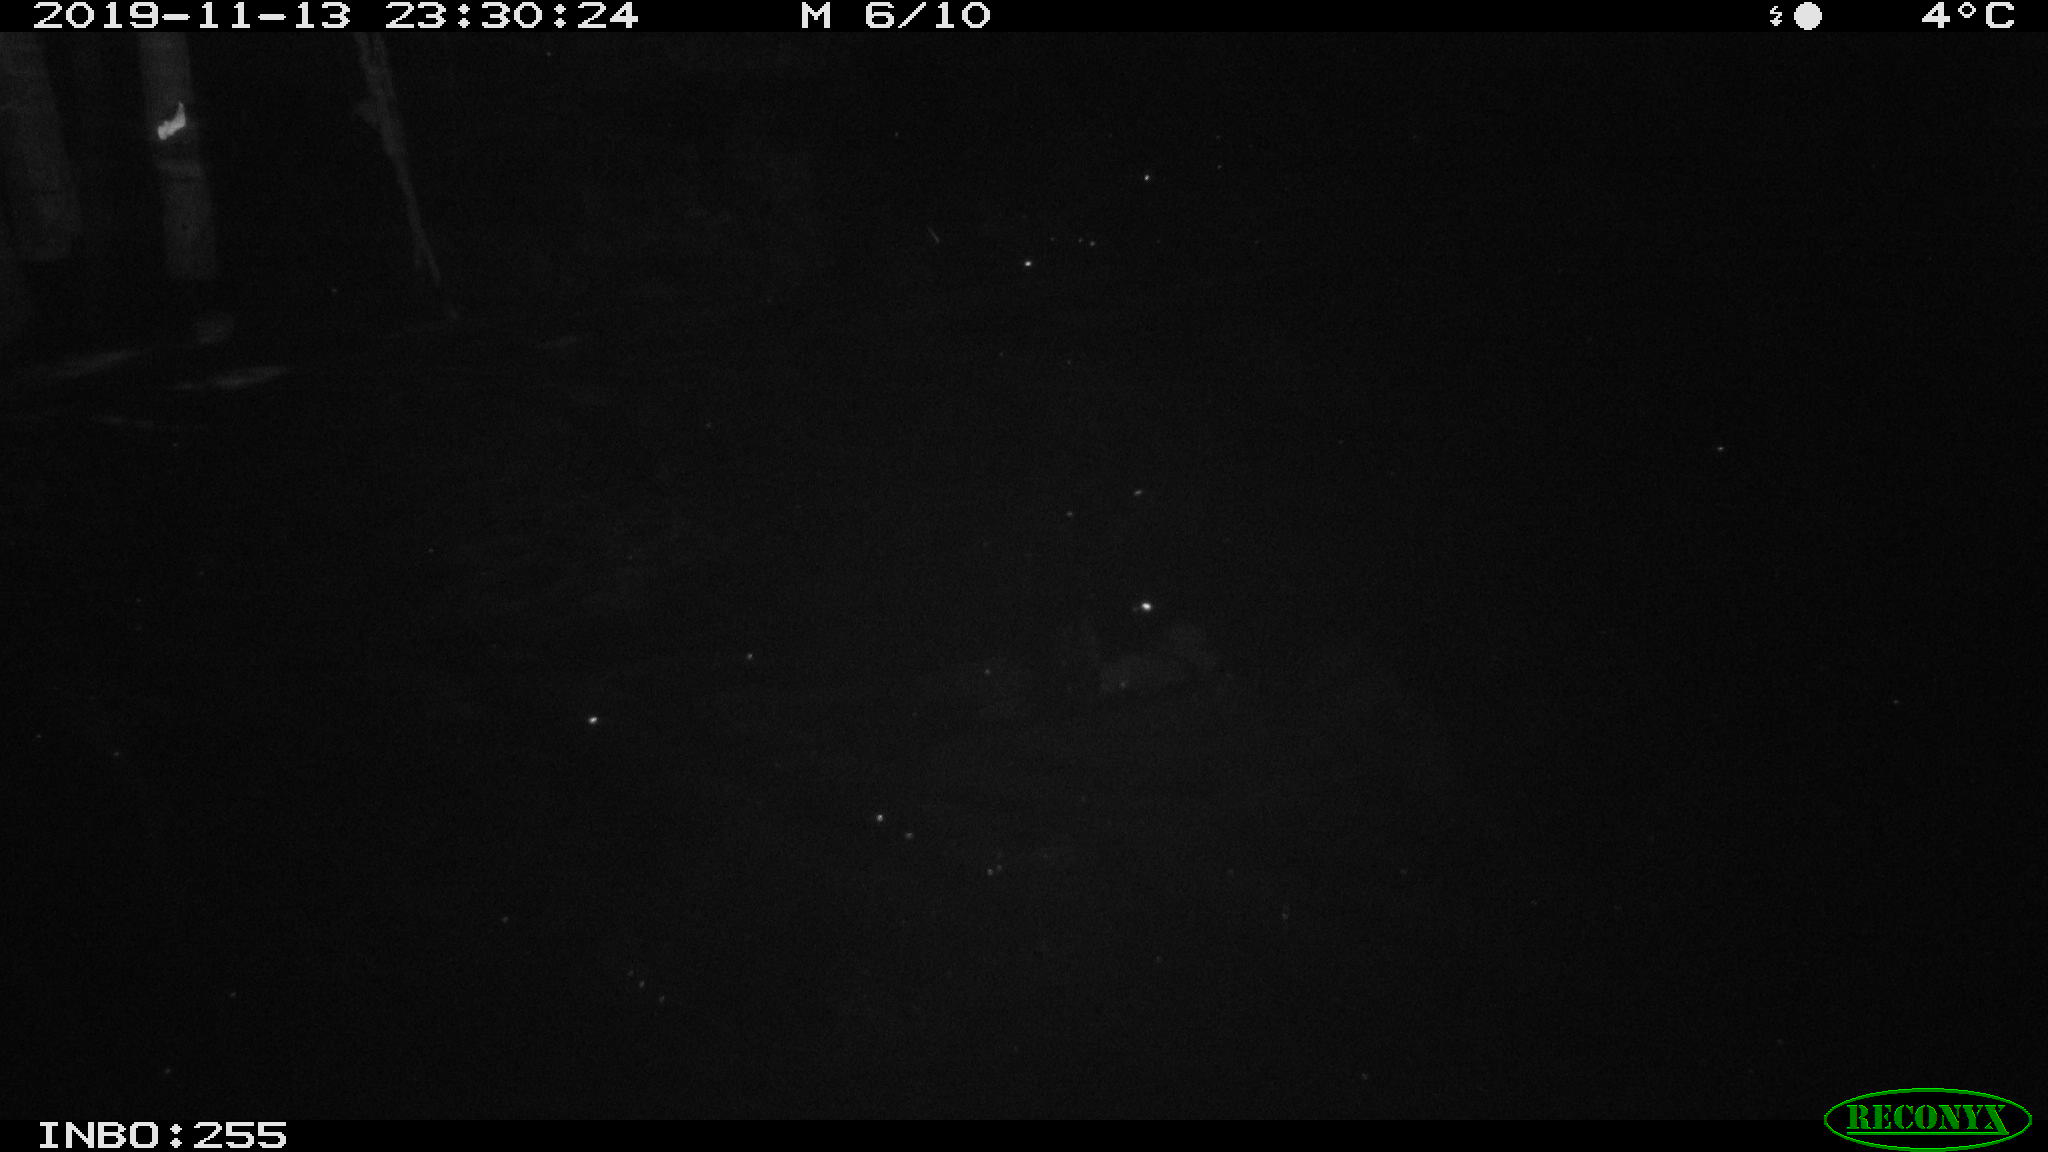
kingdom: Animalia
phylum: Chordata
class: Mammalia
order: Rodentia
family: Muridae
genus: Rattus
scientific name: Rattus norvegicus
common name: Brown rat
